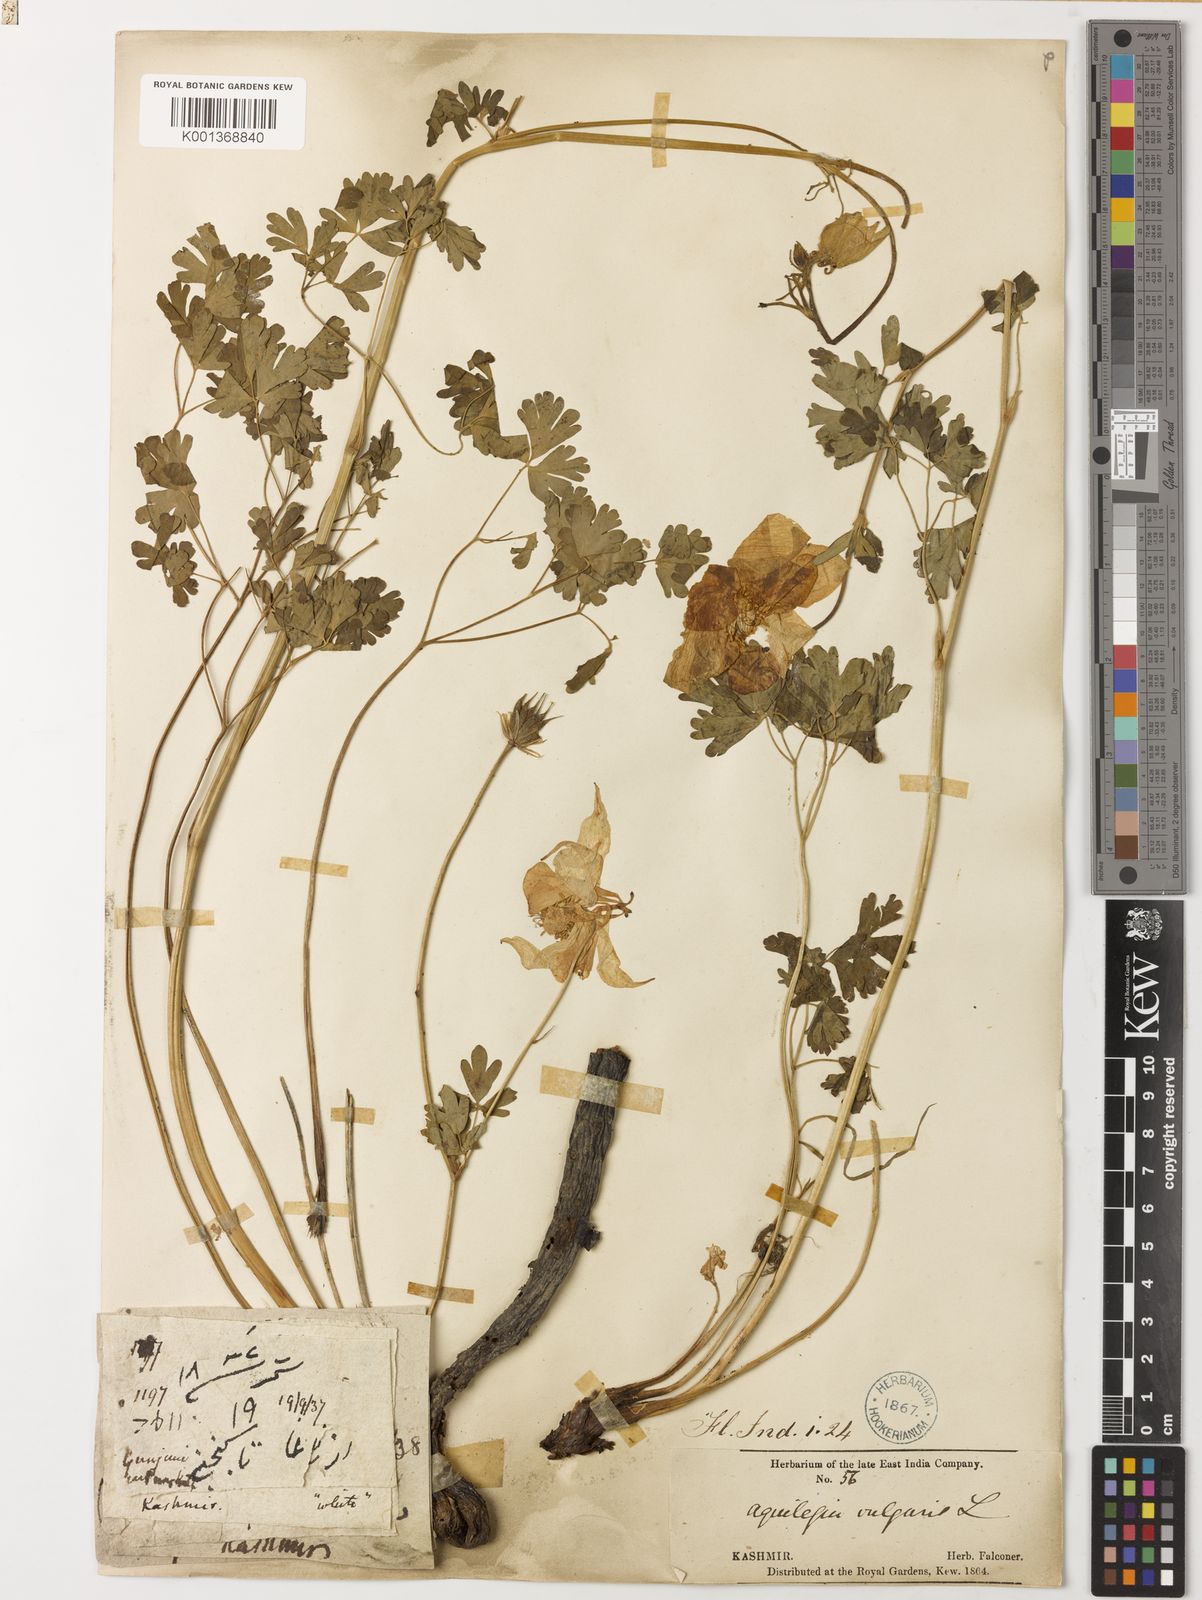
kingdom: Plantae
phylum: Tracheophyta
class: Magnoliopsida
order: Ranunculales
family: Ranunculaceae
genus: Aquilegia
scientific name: Aquilegia vulgaris
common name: Columbine
